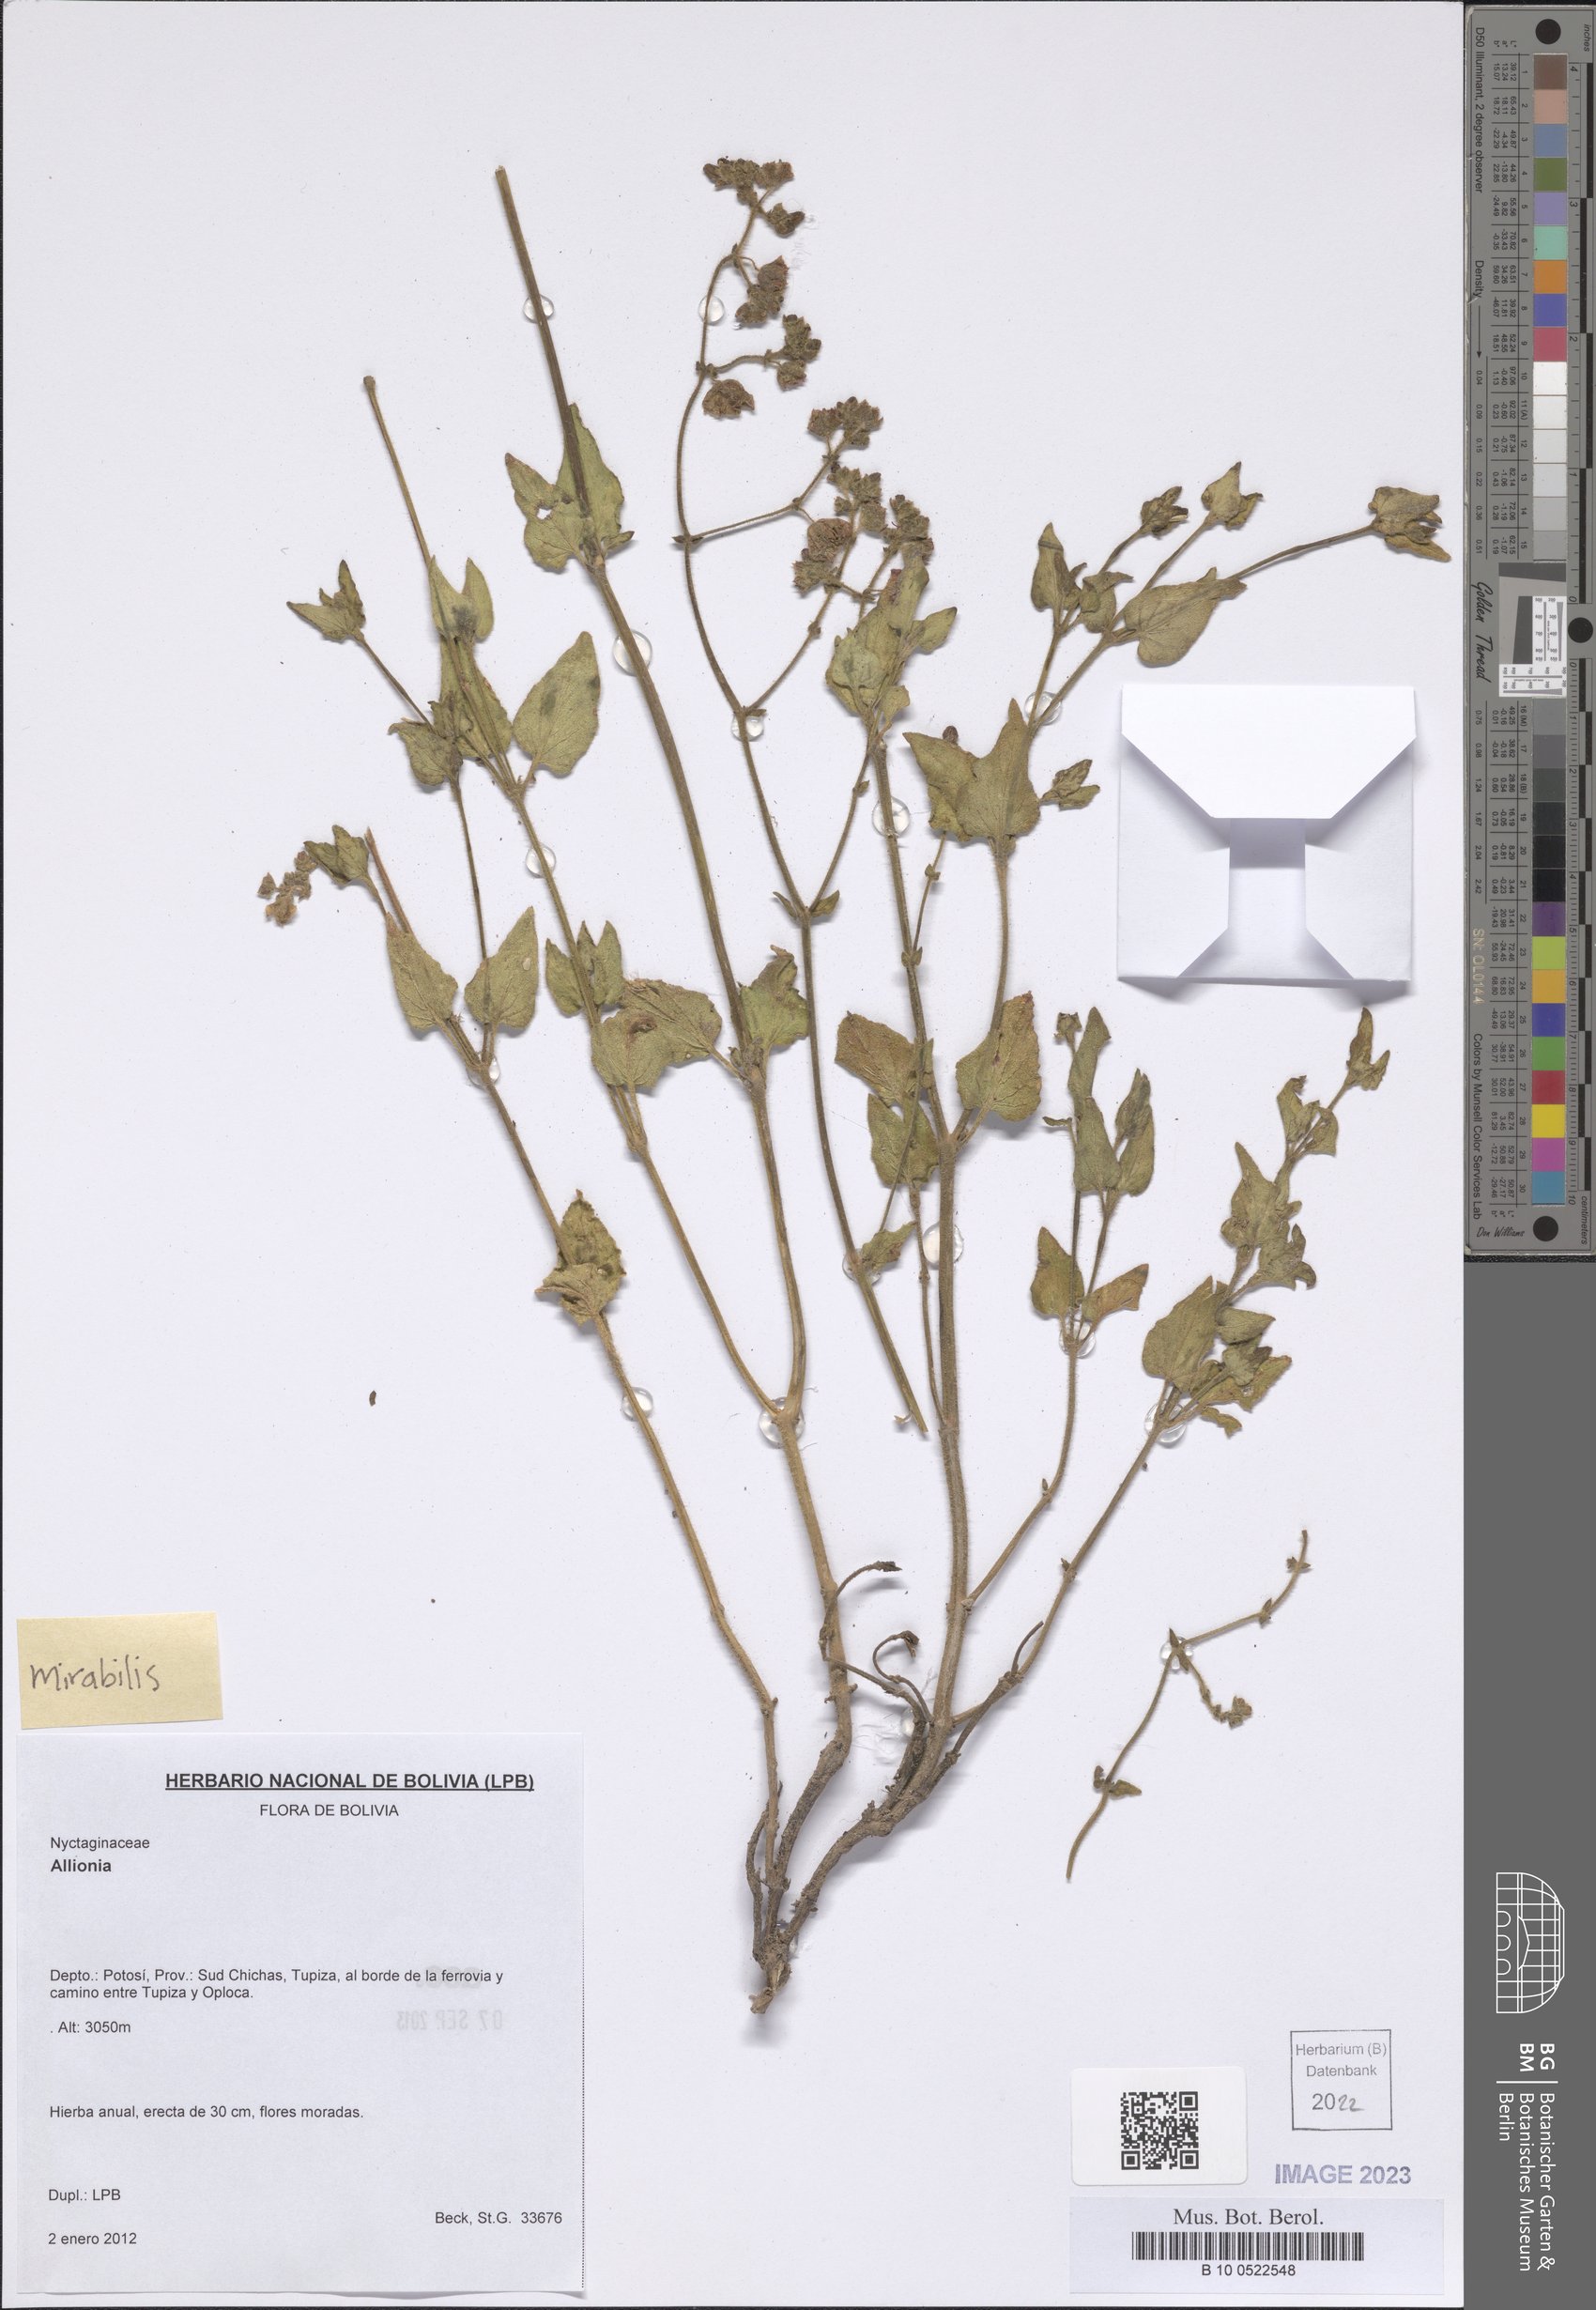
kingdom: Plantae
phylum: Tracheophyta
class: Magnoliopsida
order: Caryophyllales
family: Nyctaginaceae
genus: Mirabilis
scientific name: Mirabilis
